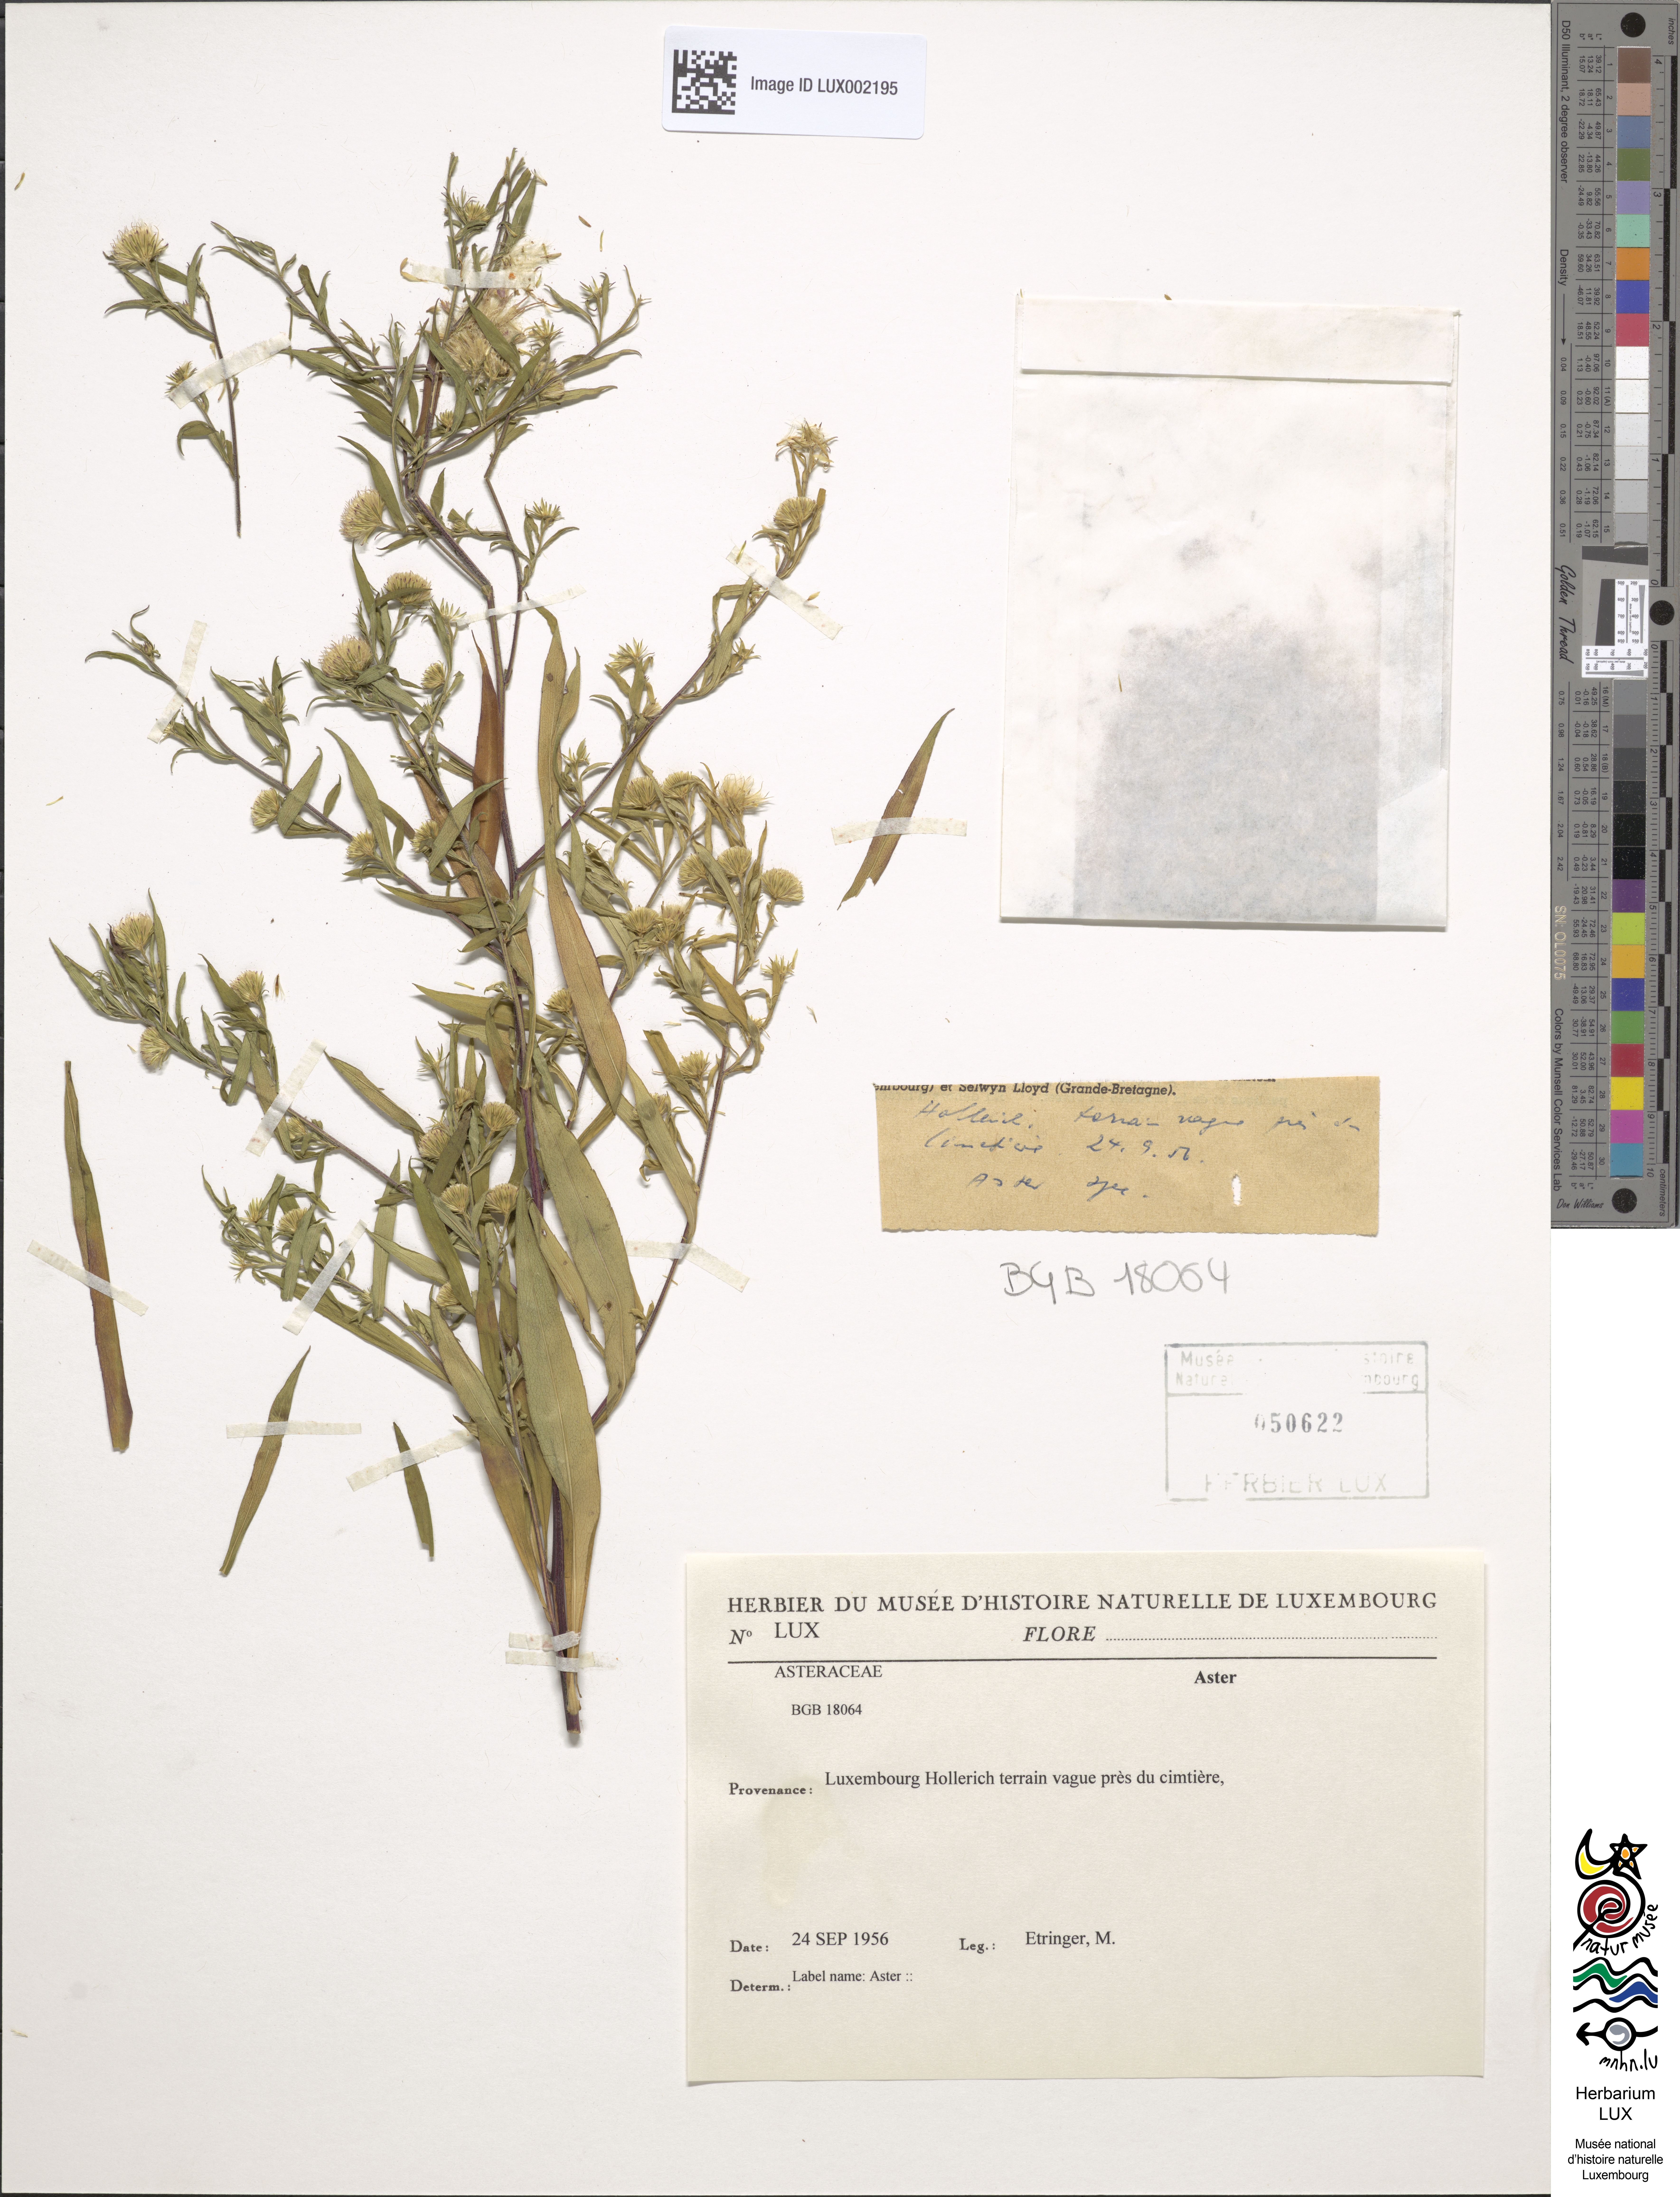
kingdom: Plantae
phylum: Tracheophyta
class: Magnoliopsida
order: Asterales
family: Asteraceae
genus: Aster
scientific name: Aster
